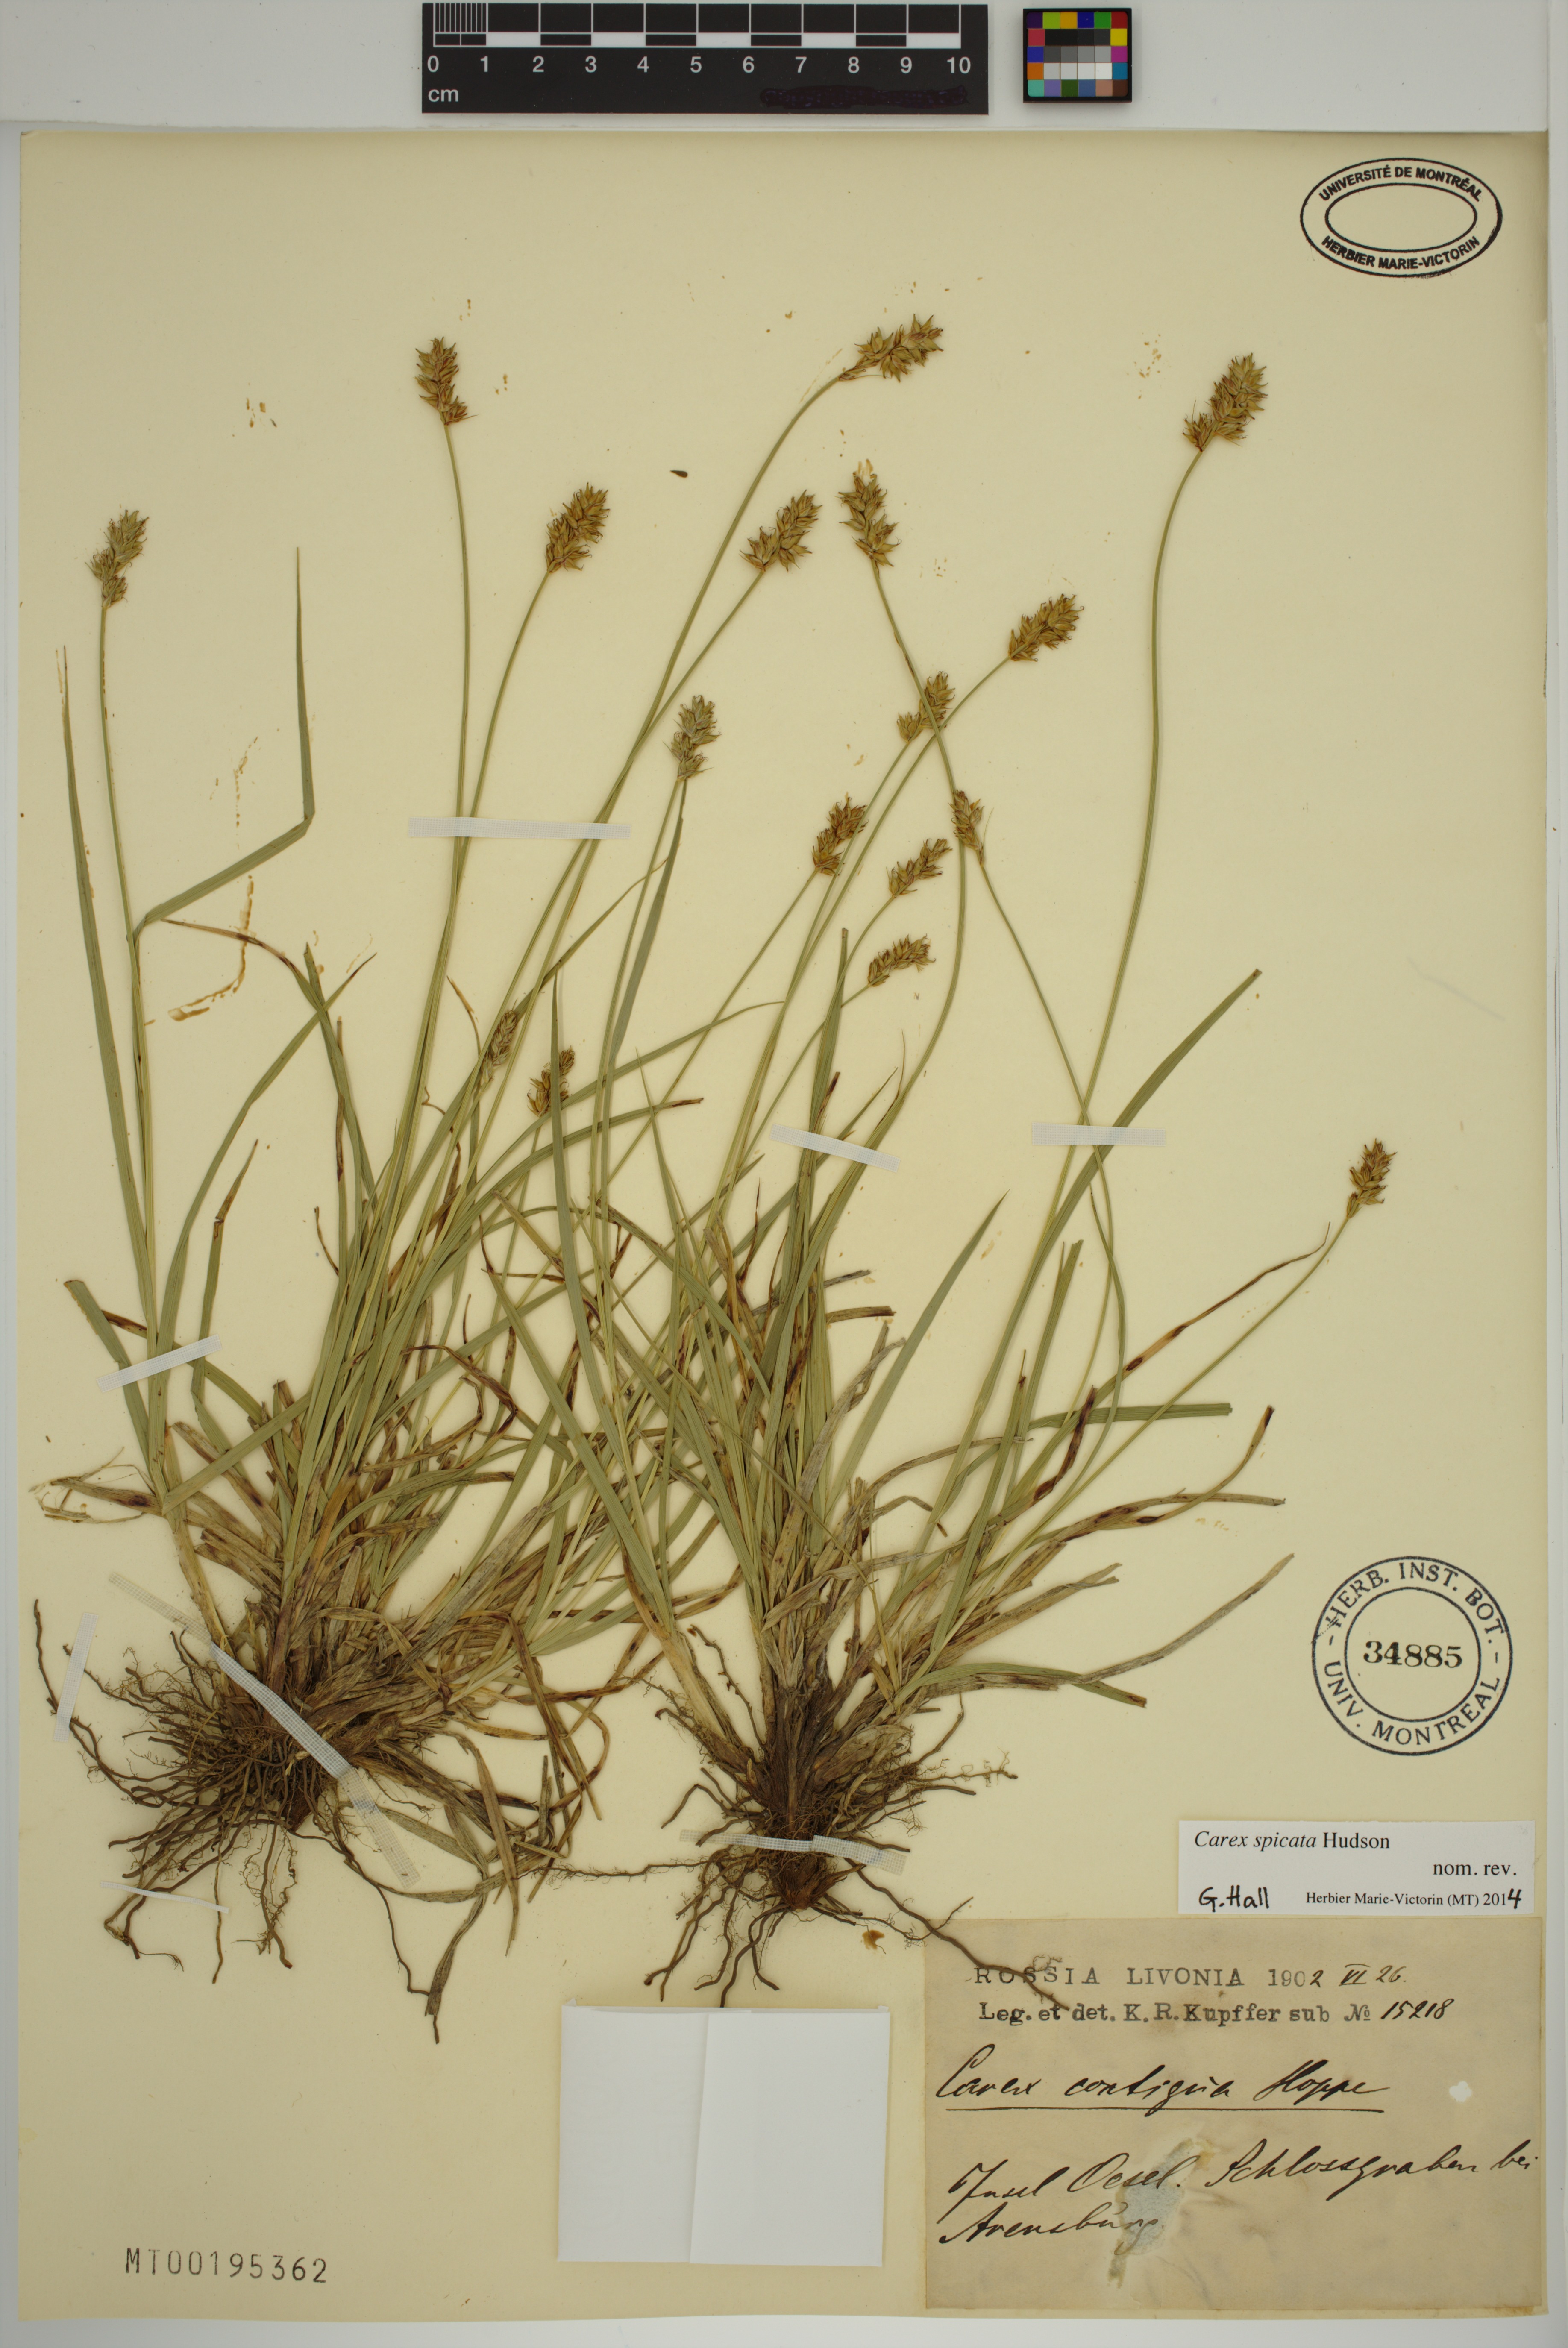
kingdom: Plantae
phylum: Tracheophyta
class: Liliopsida
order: Poales
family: Cyperaceae
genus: Carex
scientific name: Carex spicata
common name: Spiked sedge
